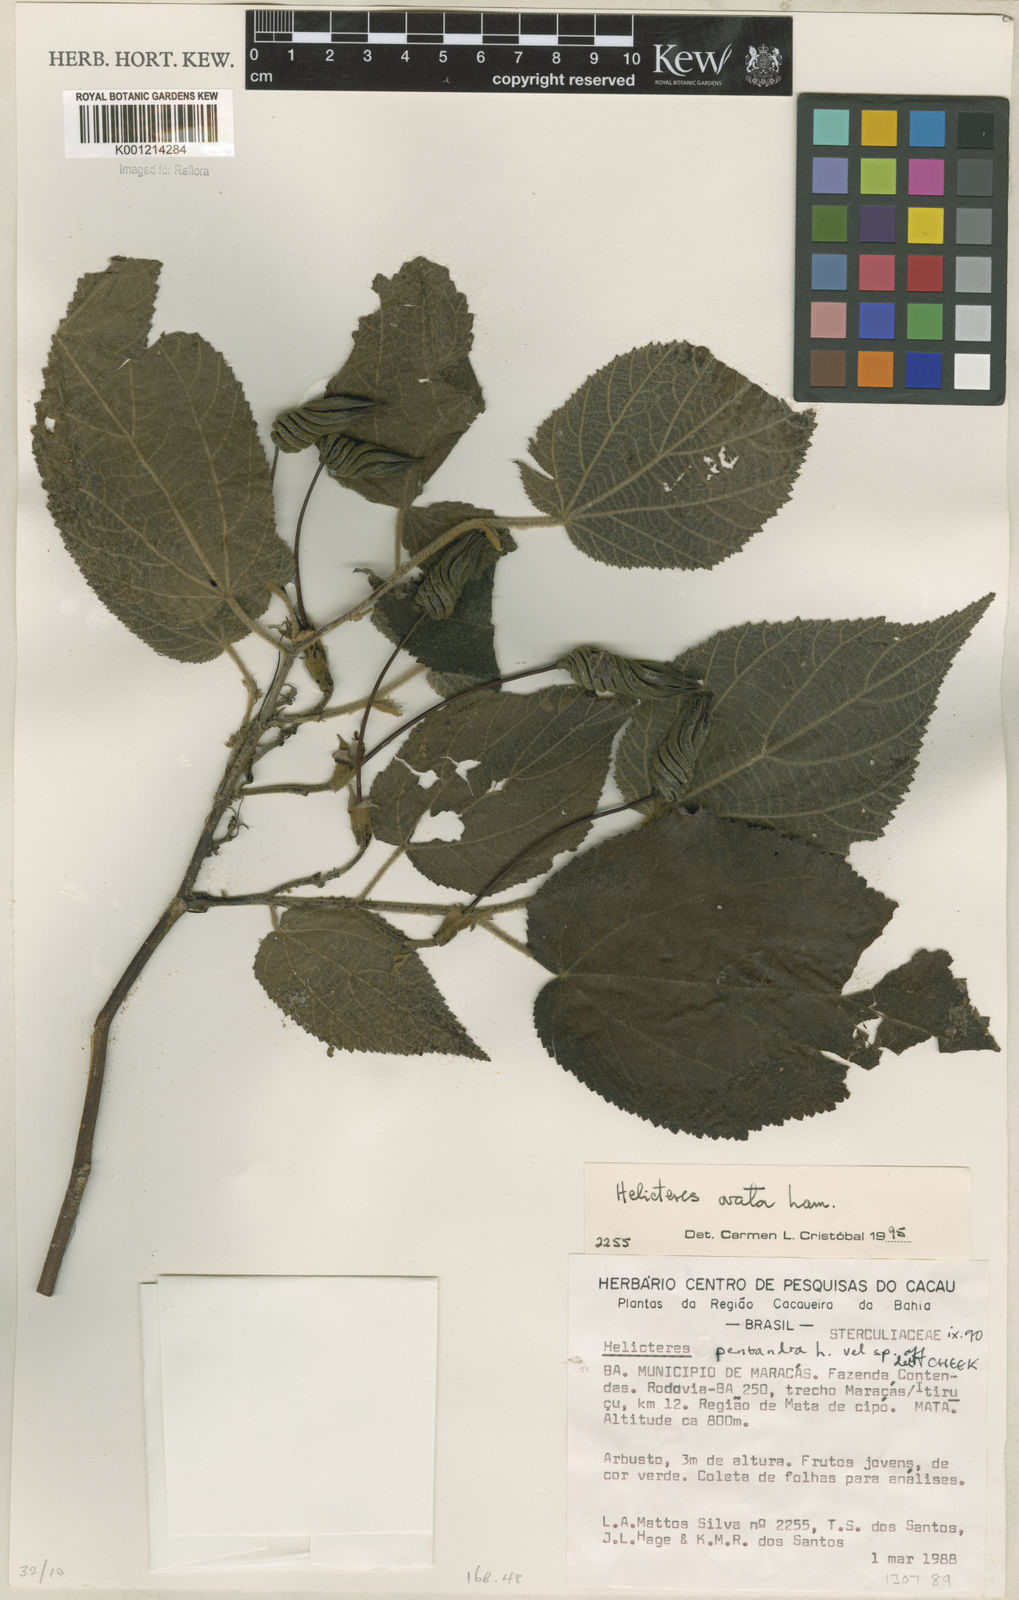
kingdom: Plantae
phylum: Tracheophyta
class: Magnoliopsida
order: Malvales
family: Malvaceae
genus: Helicteres
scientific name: Helicteres ovata
